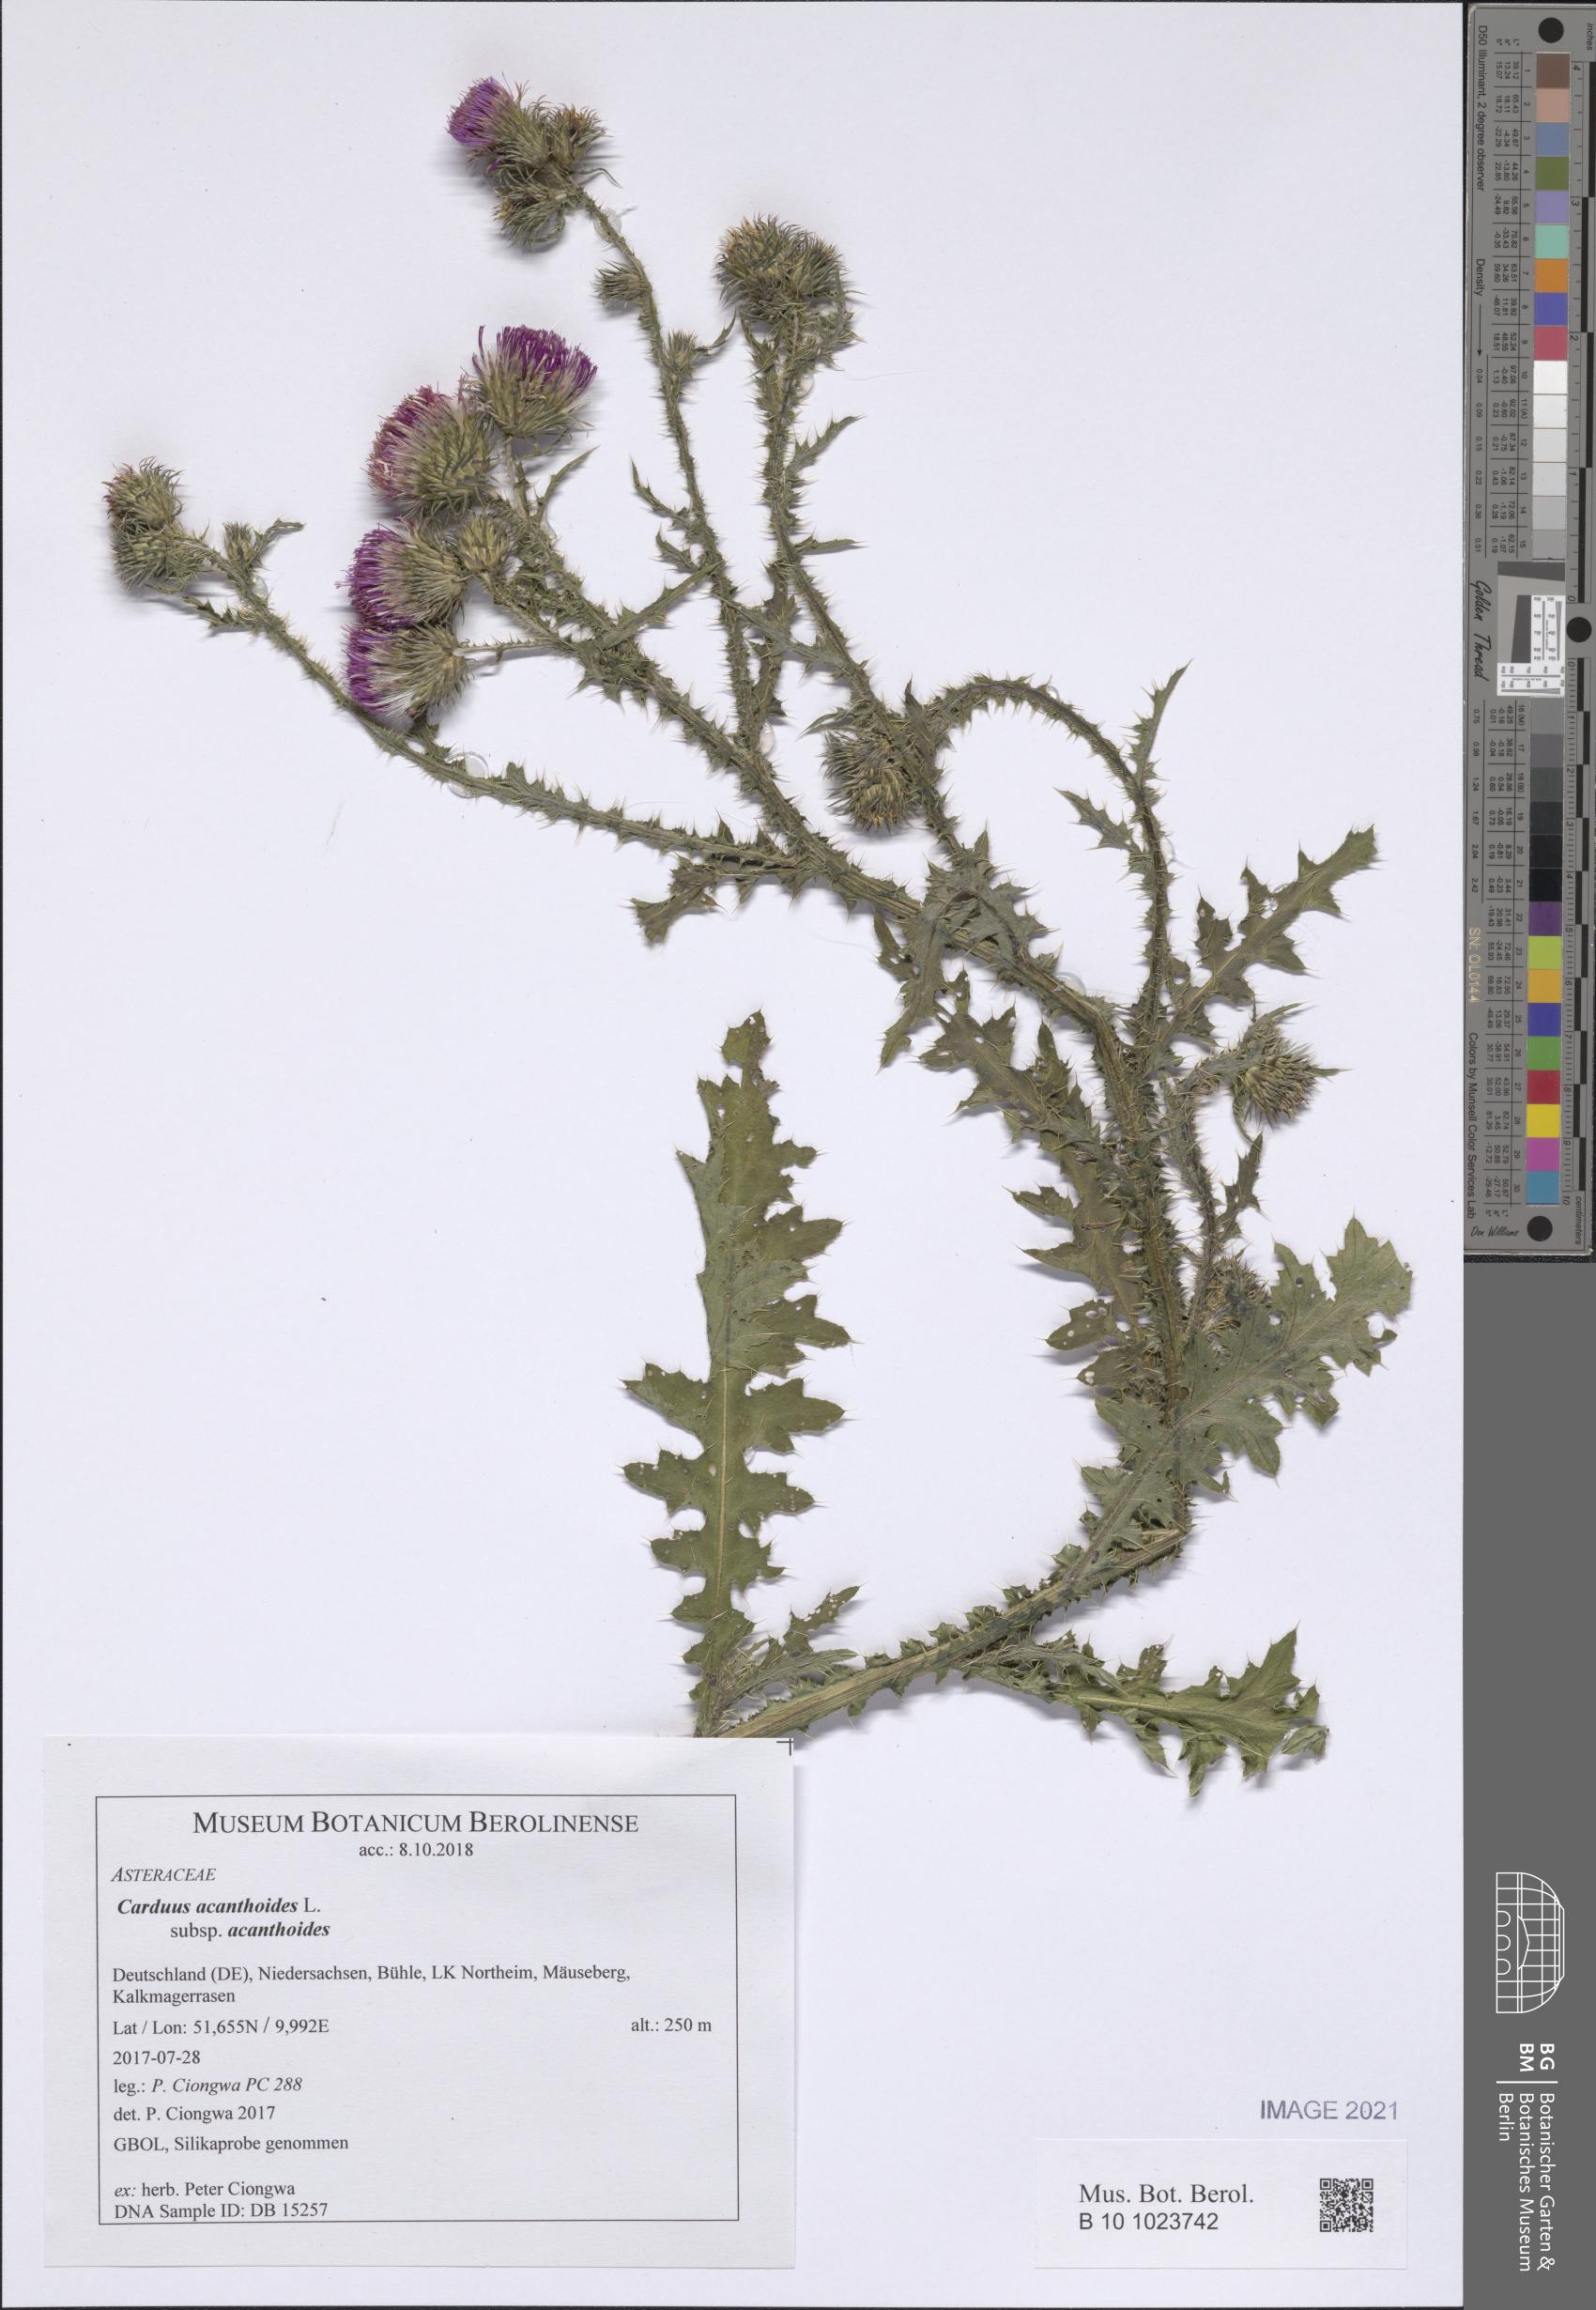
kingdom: Plantae
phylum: Tracheophyta
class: Magnoliopsida
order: Asterales
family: Asteraceae
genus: Carduus
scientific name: Carduus acanthoides
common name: Plumeless thistle
